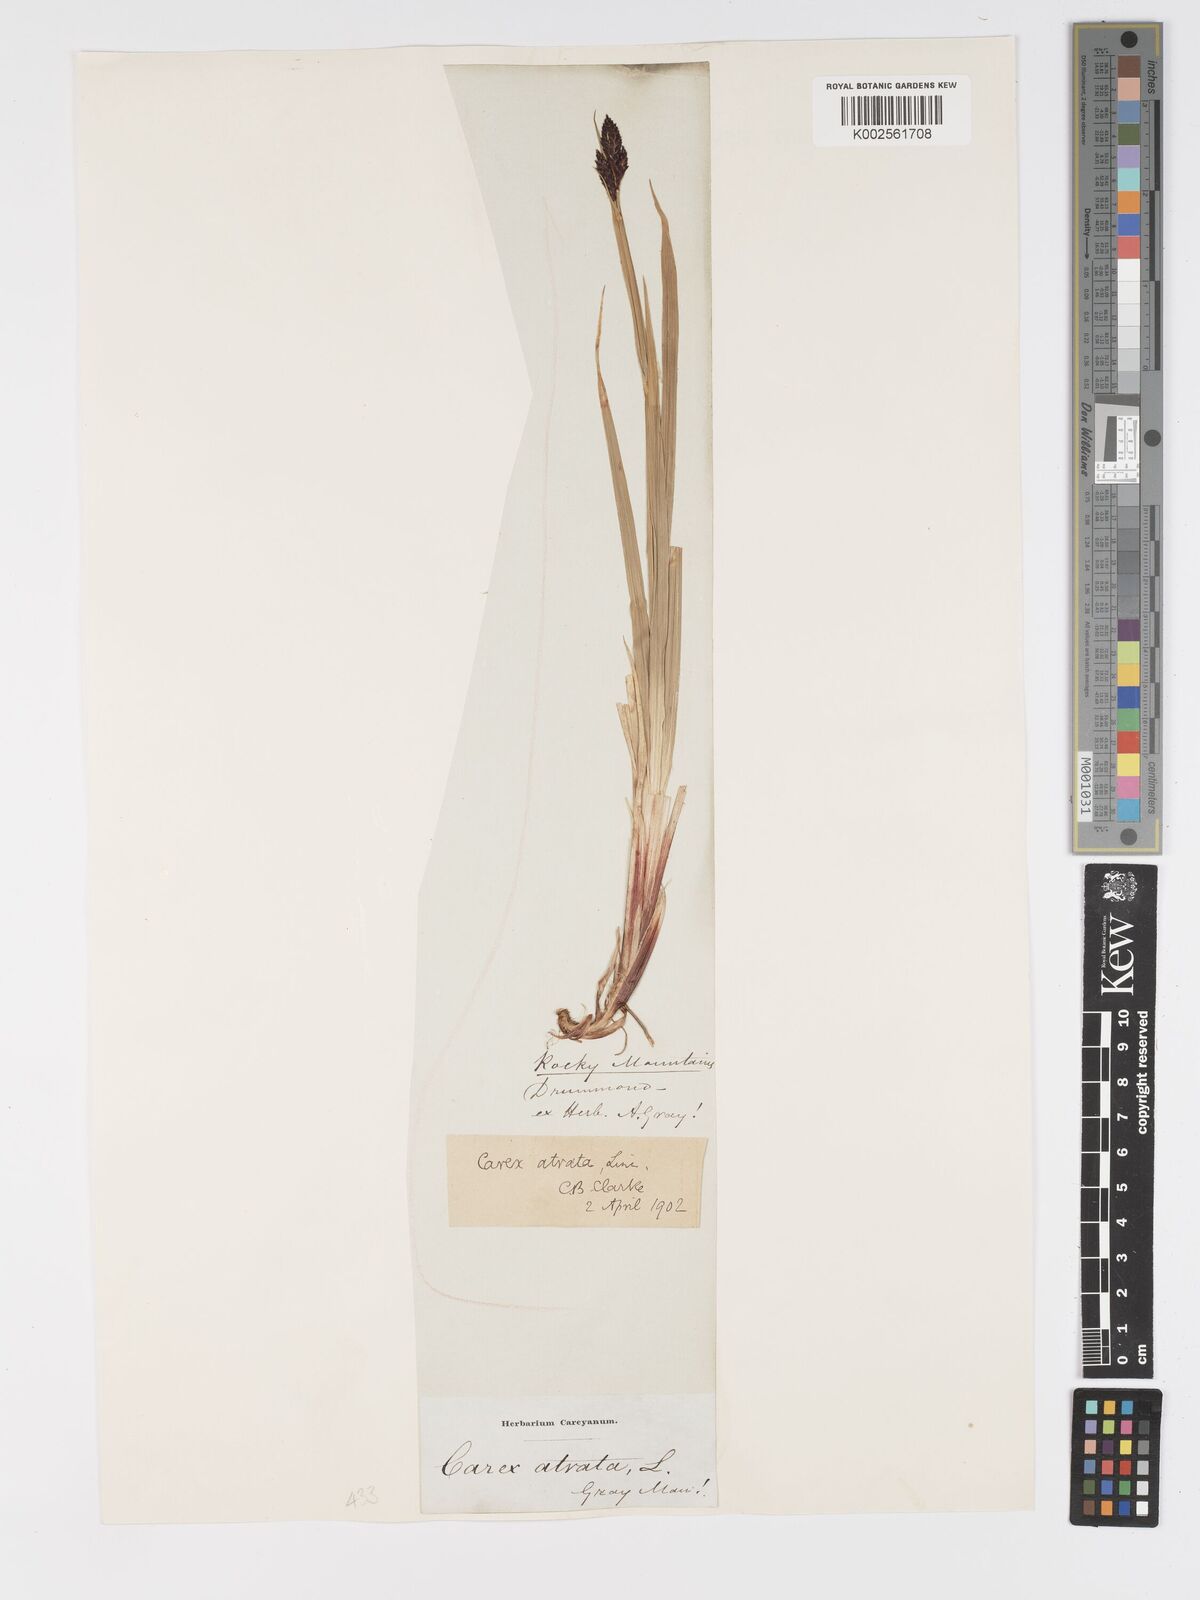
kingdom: Plantae
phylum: Tracheophyta
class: Liliopsida
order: Poales
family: Cyperaceae
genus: Carex
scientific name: Carex atrata
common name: Black alpine sedge
